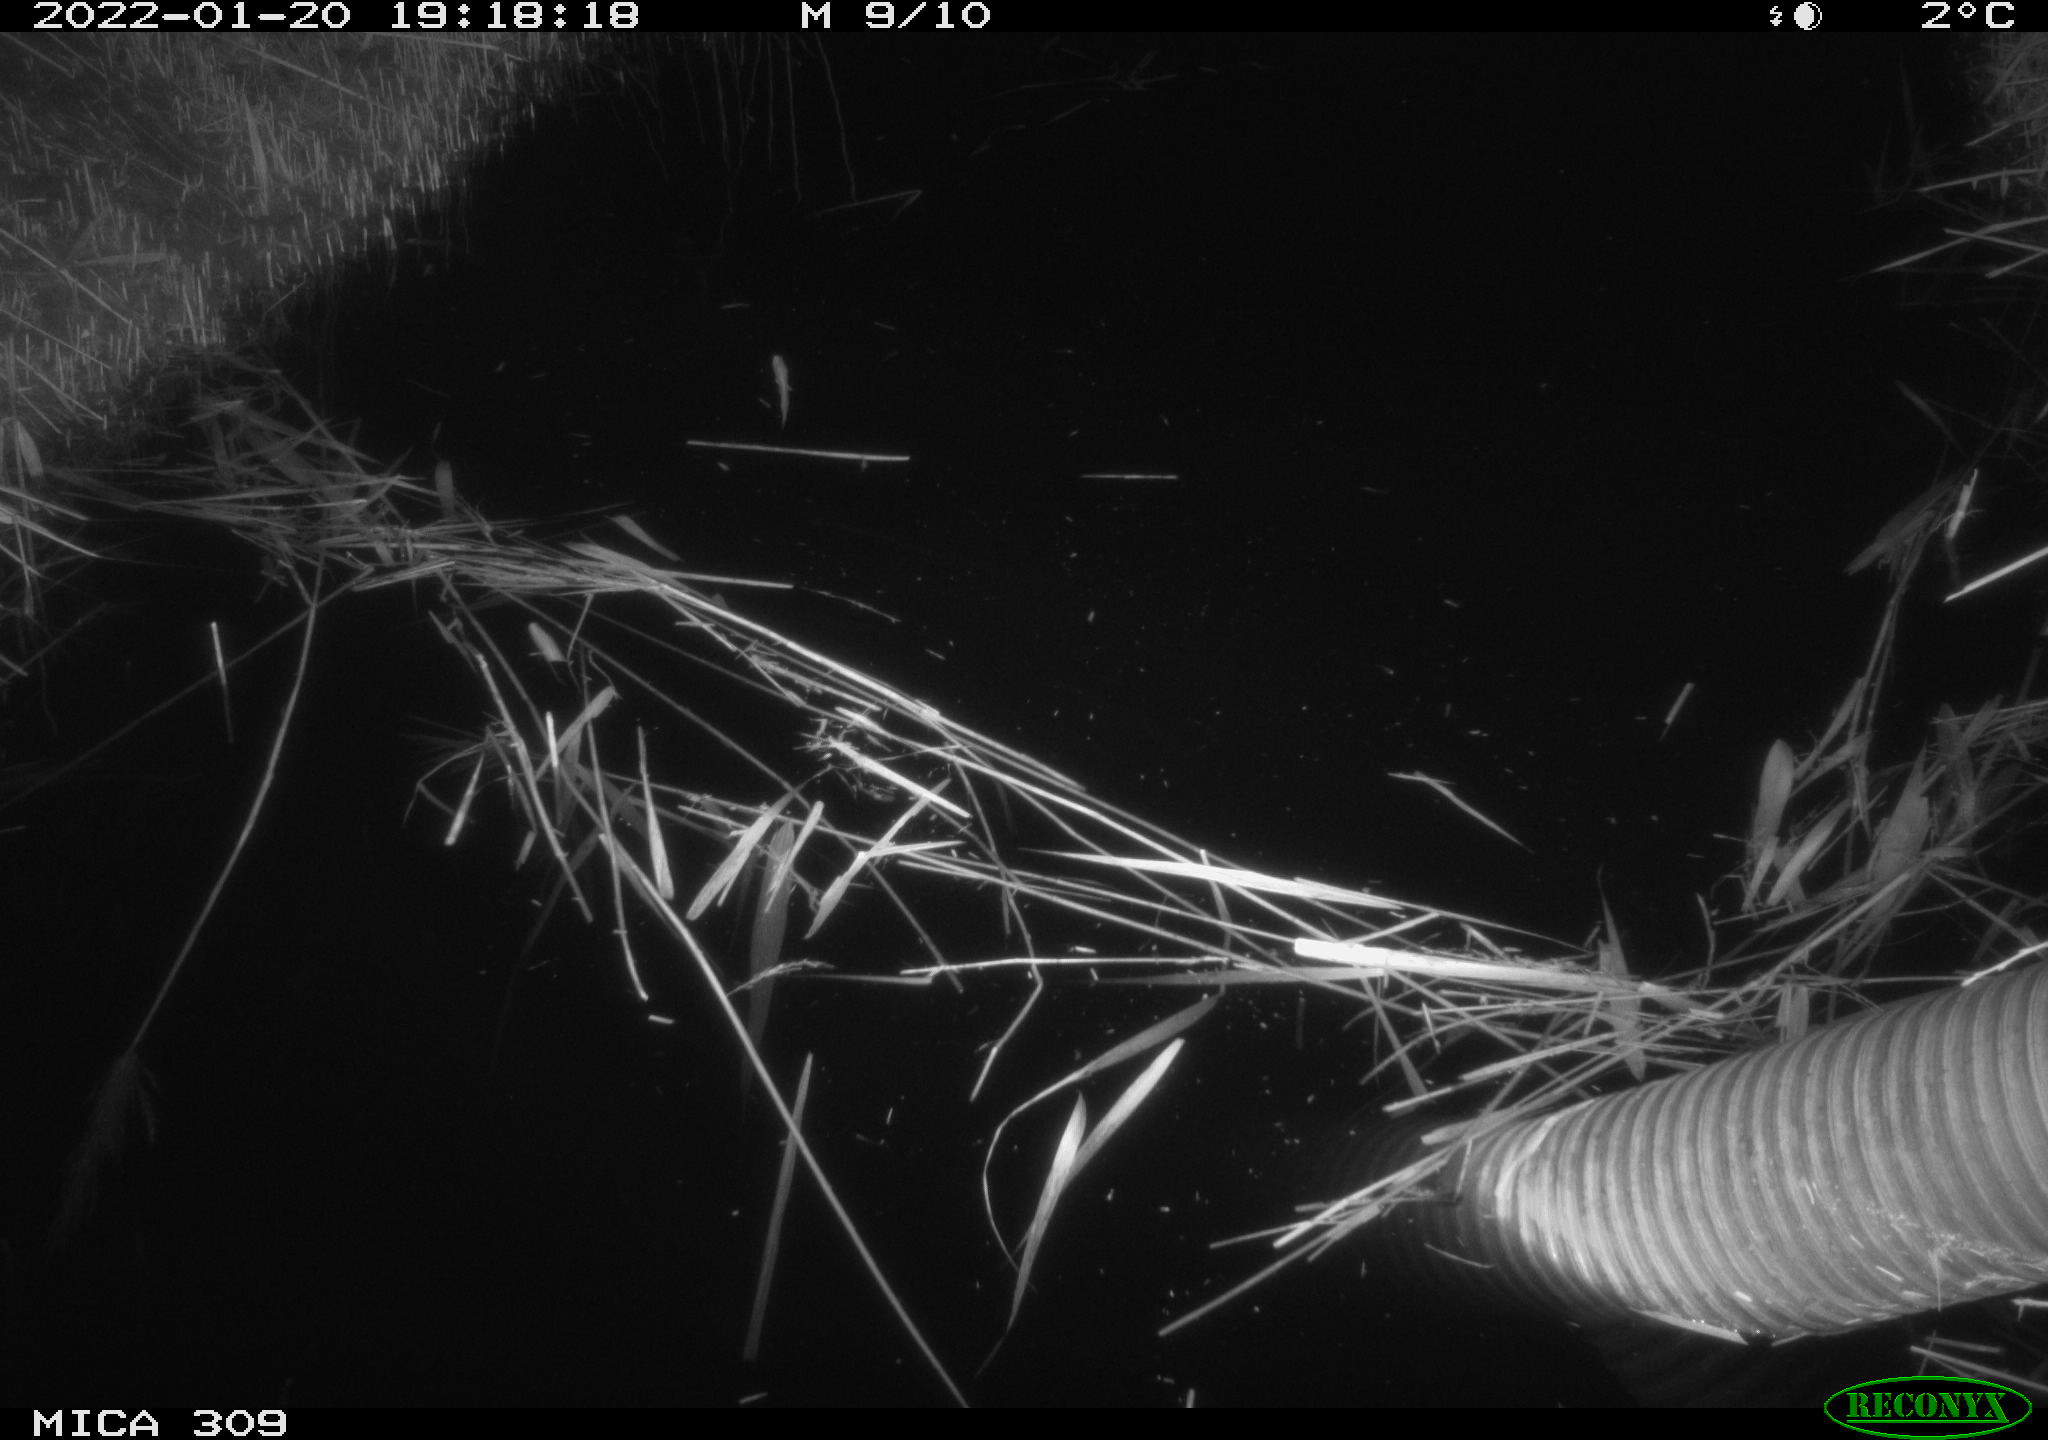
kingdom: Animalia
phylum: Chordata
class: Mammalia
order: Rodentia
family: Muridae
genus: Rattus
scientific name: Rattus norvegicus
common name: Brown rat
